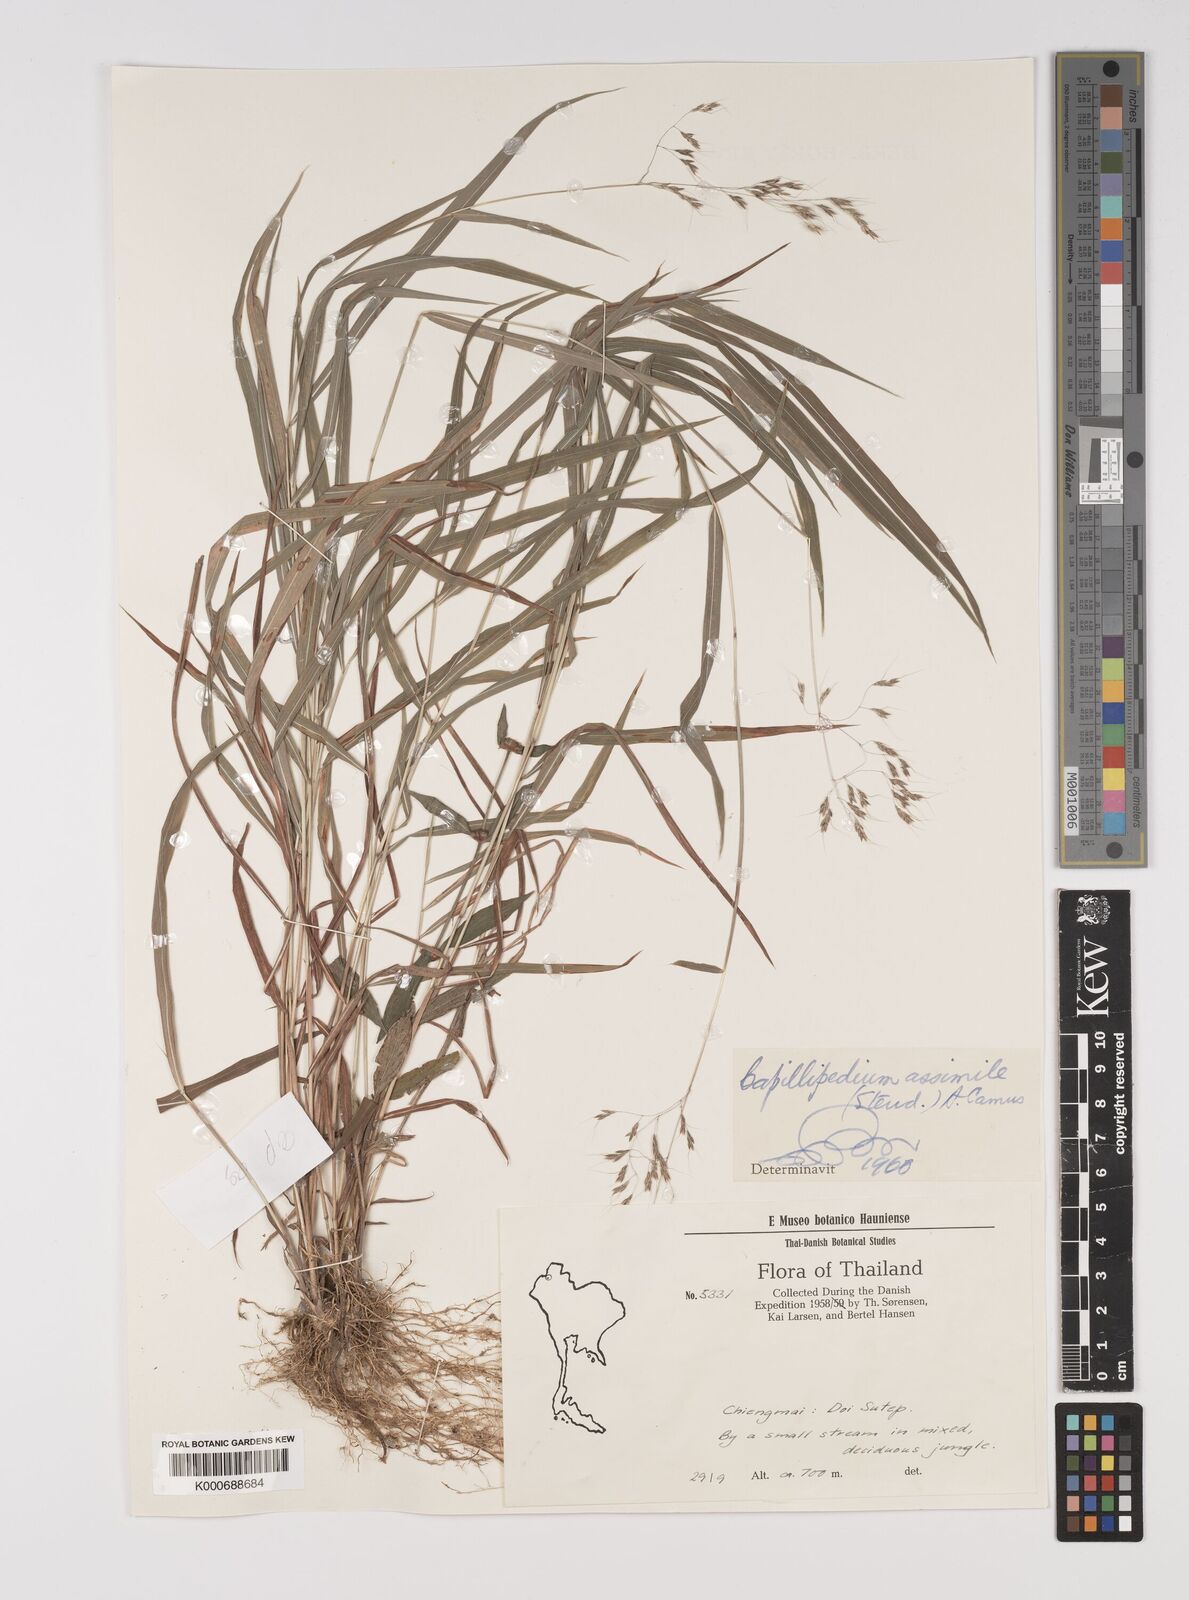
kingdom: Plantae
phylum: Tracheophyta
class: Liliopsida
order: Poales
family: Poaceae
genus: Capillipedium
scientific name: Capillipedium assimile
